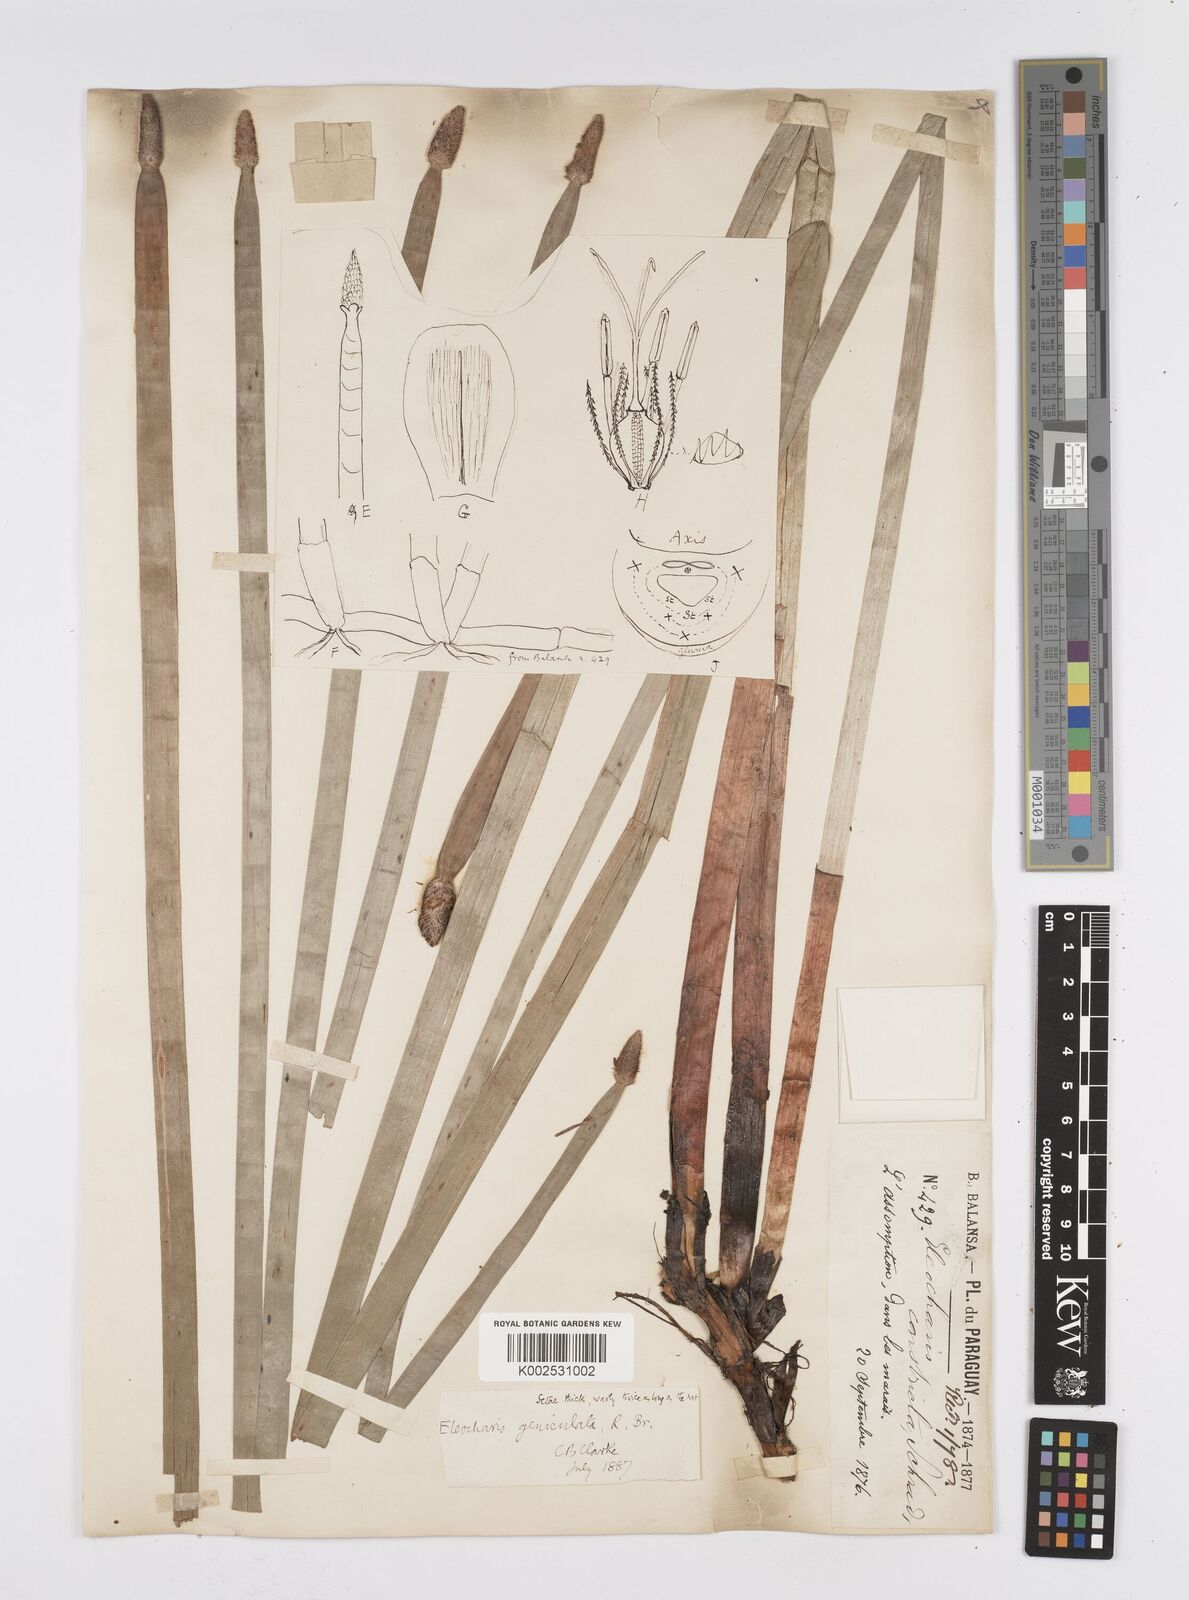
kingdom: Plantae
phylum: Tracheophyta
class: Liliopsida
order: Poales
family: Cyperaceae
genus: Eleocharis
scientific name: Eleocharis elegans
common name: Elegant spike-rush
